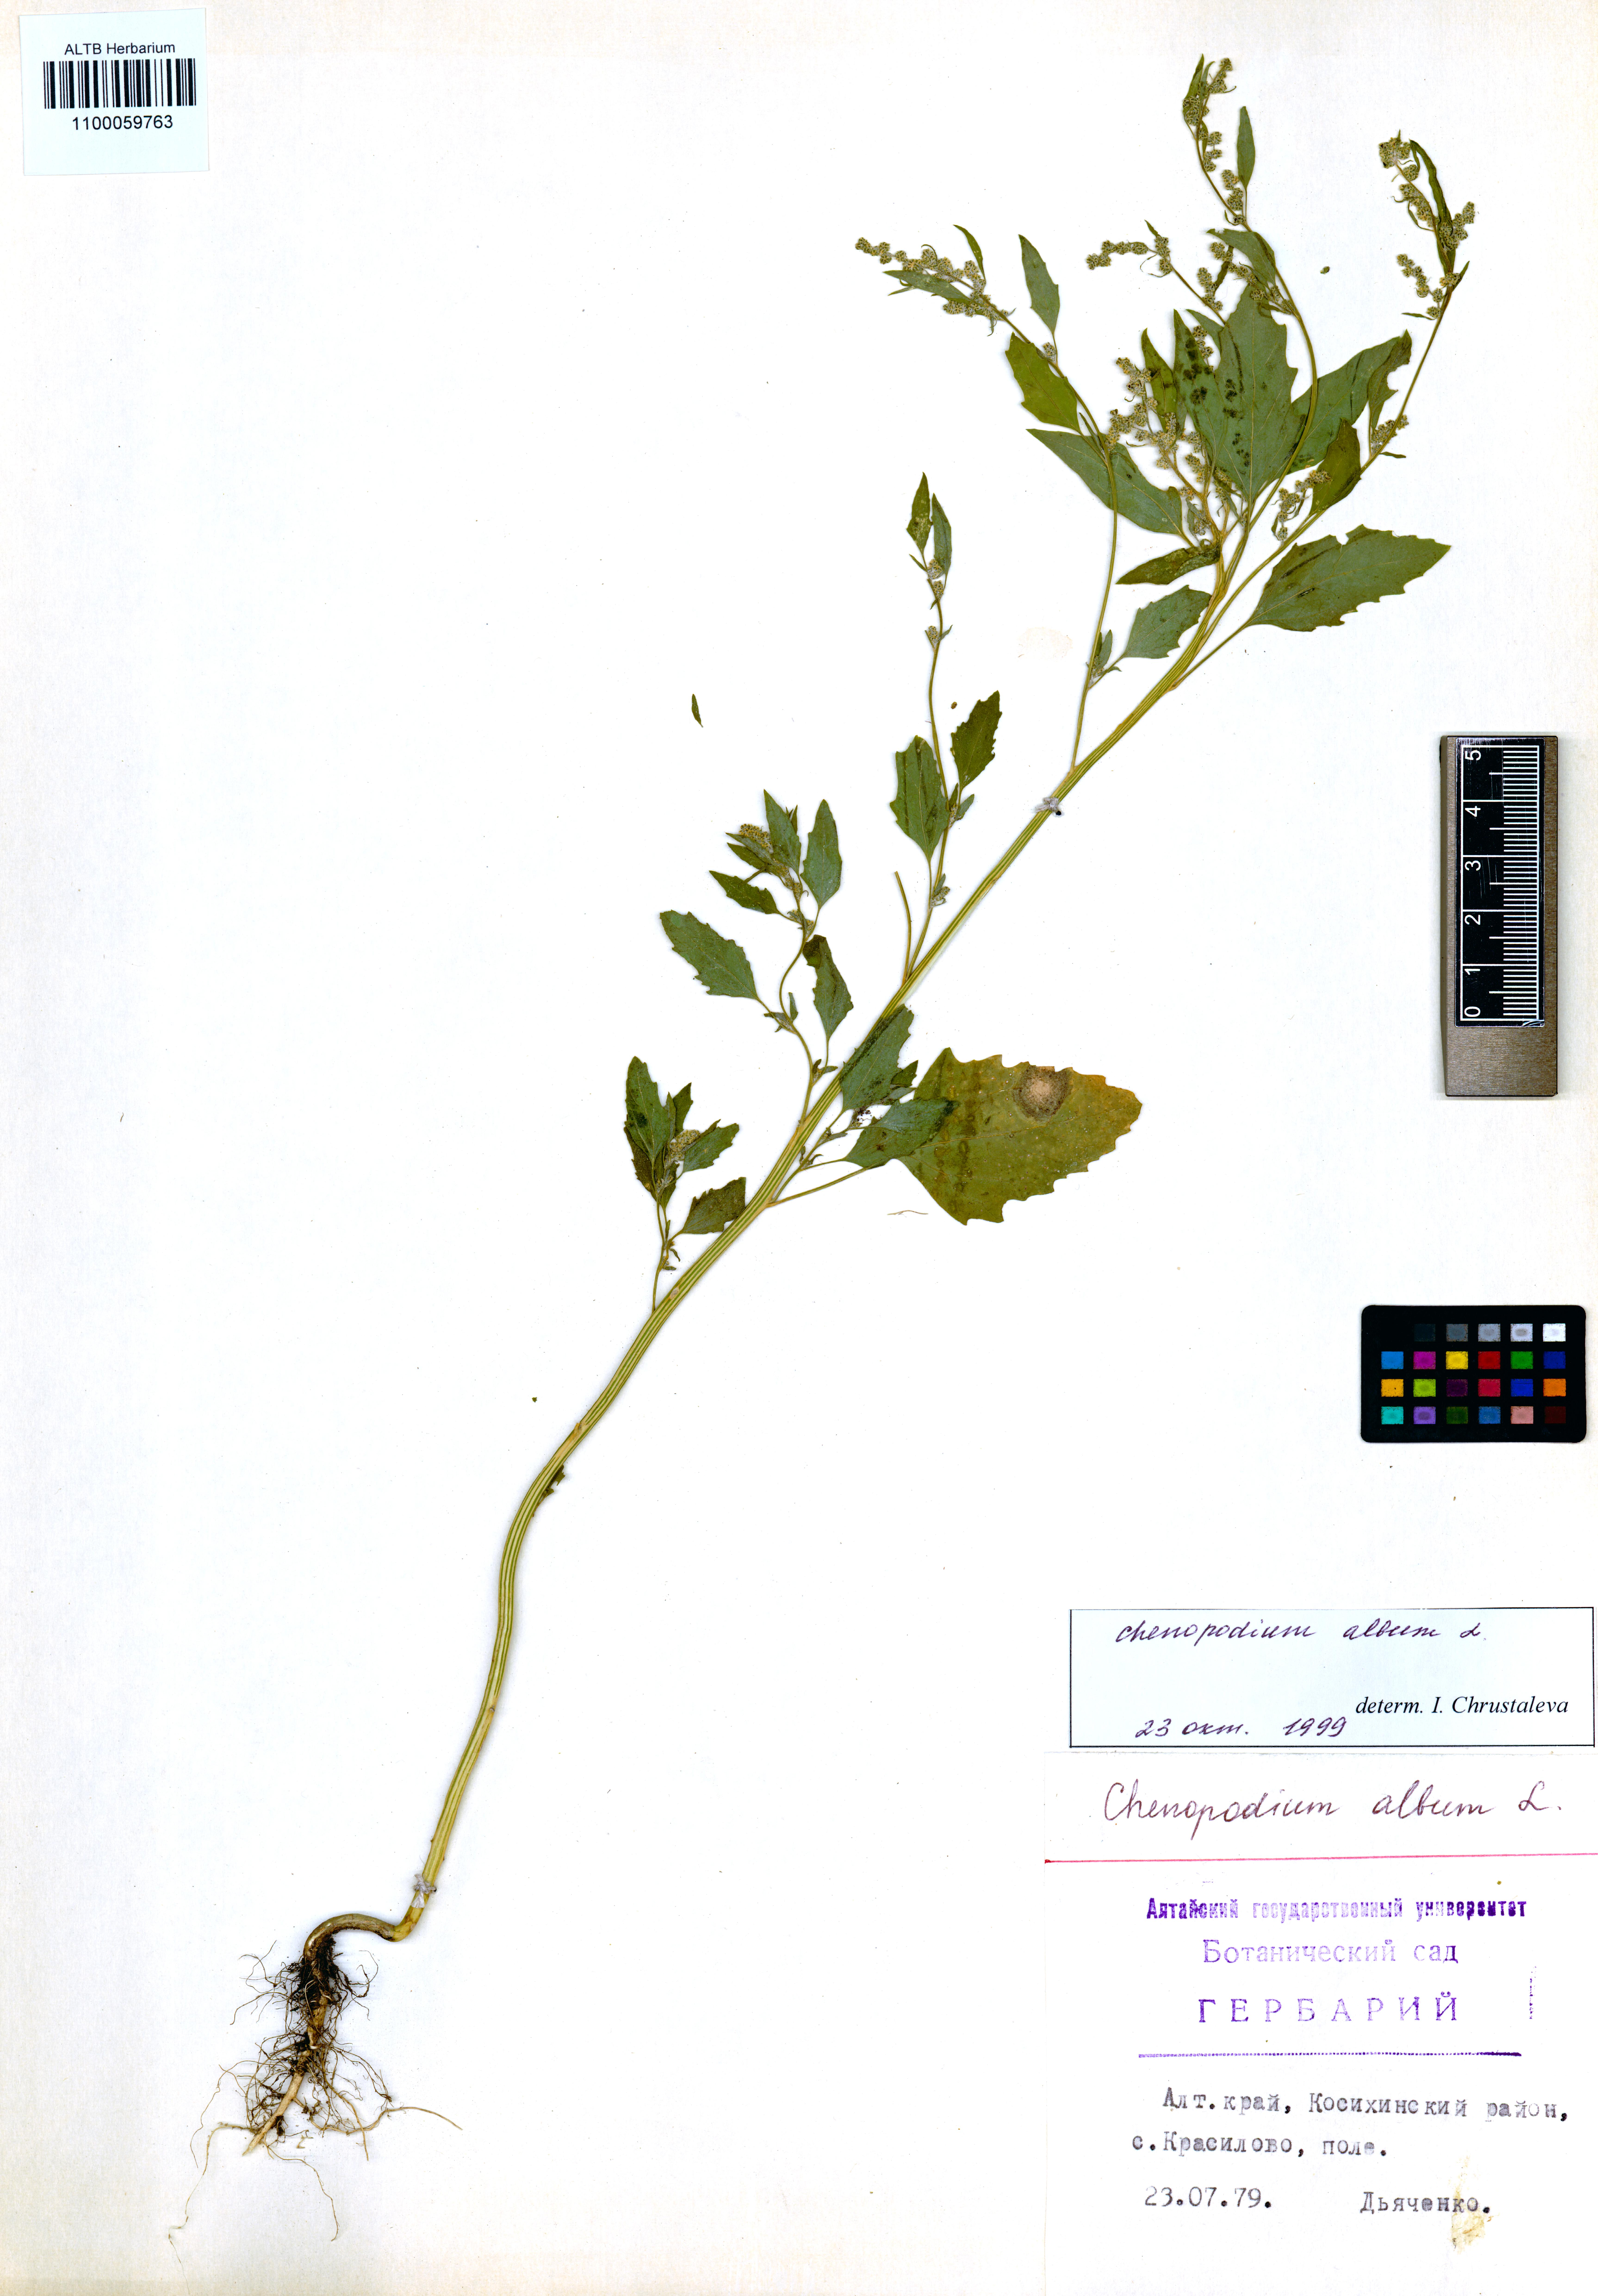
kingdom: Plantae
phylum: Tracheophyta
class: Magnoliopsida
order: Caryophyllales
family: Amaranthaceae
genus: Chenopodium
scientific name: Chenopodium album
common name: Fat-hen
